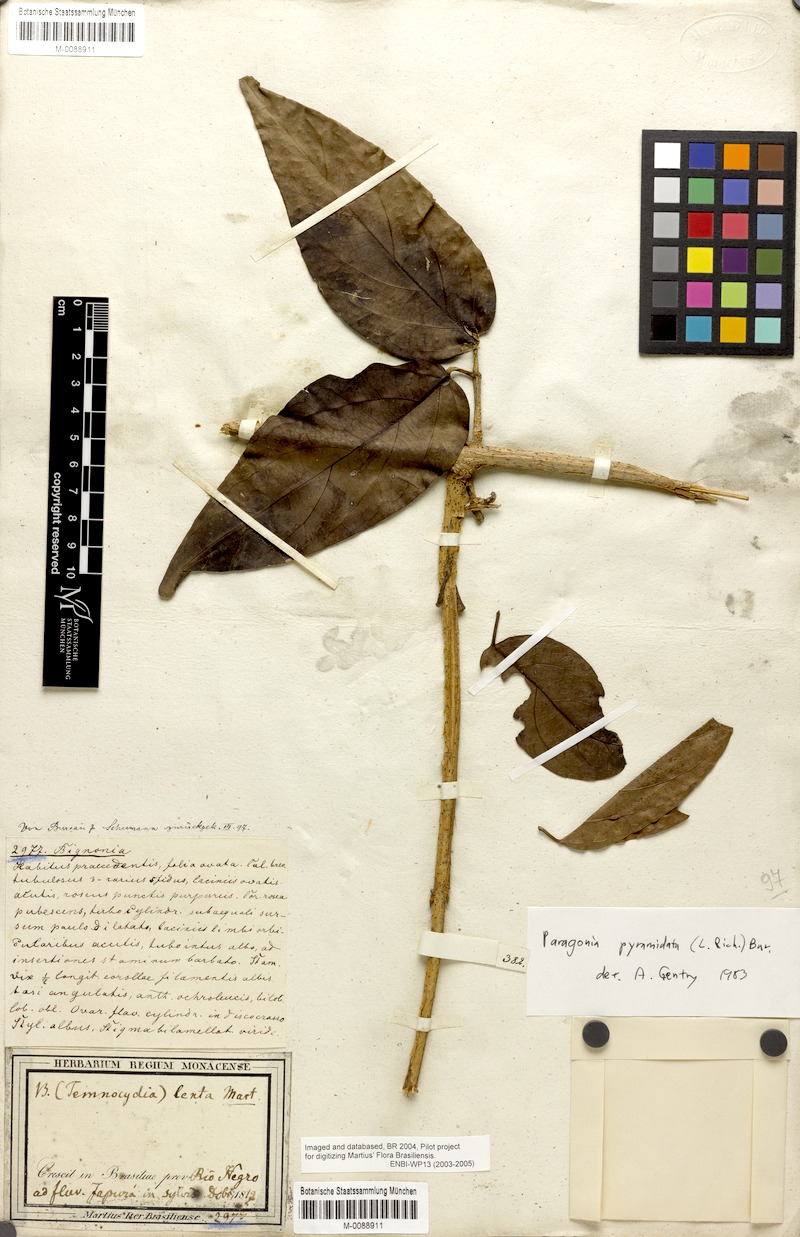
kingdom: Plantae
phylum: Tracheophyta
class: Magnoliopsida
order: Lamiales
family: Bignoniaceae
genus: Tanaecium
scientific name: Tanaecium pyramidatum
